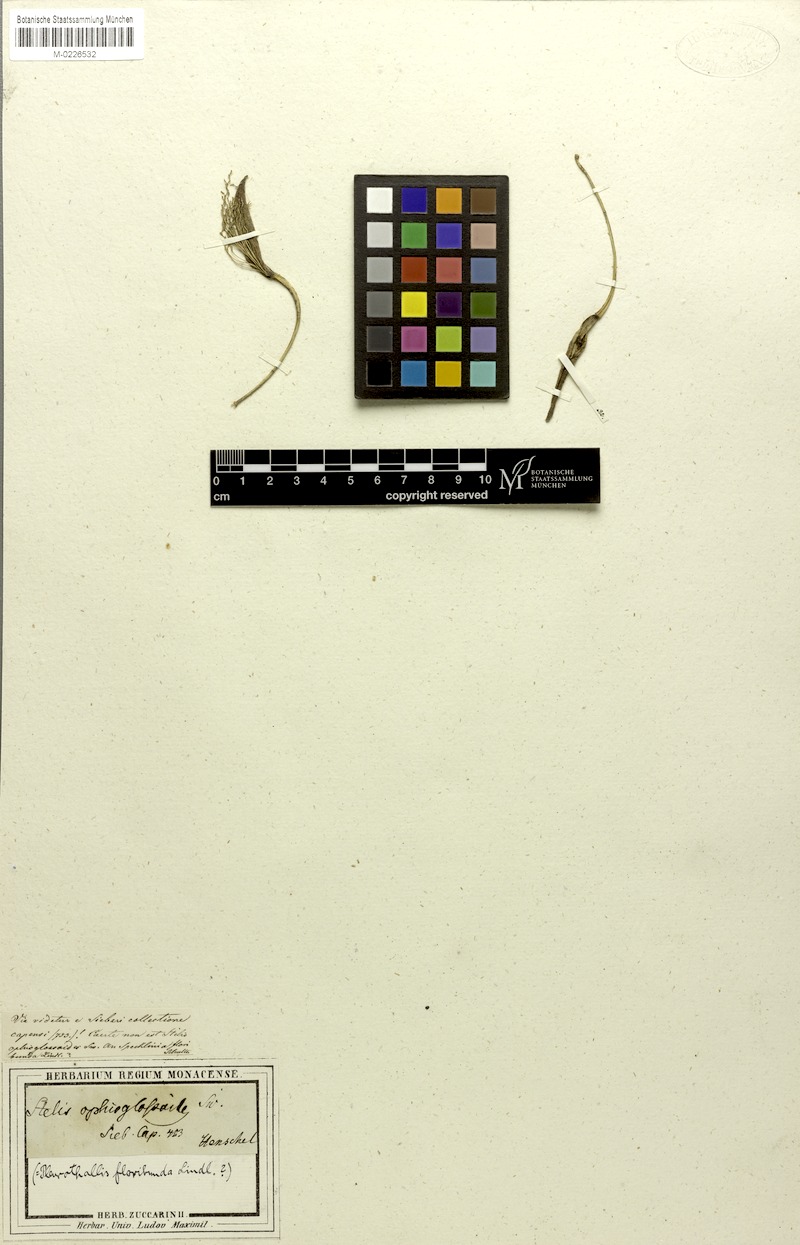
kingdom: Plantae
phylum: Tracheophyta
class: Liliopsida
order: Asparagales
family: Orchidaceae
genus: Acianthera
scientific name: Acianthera capillaris
